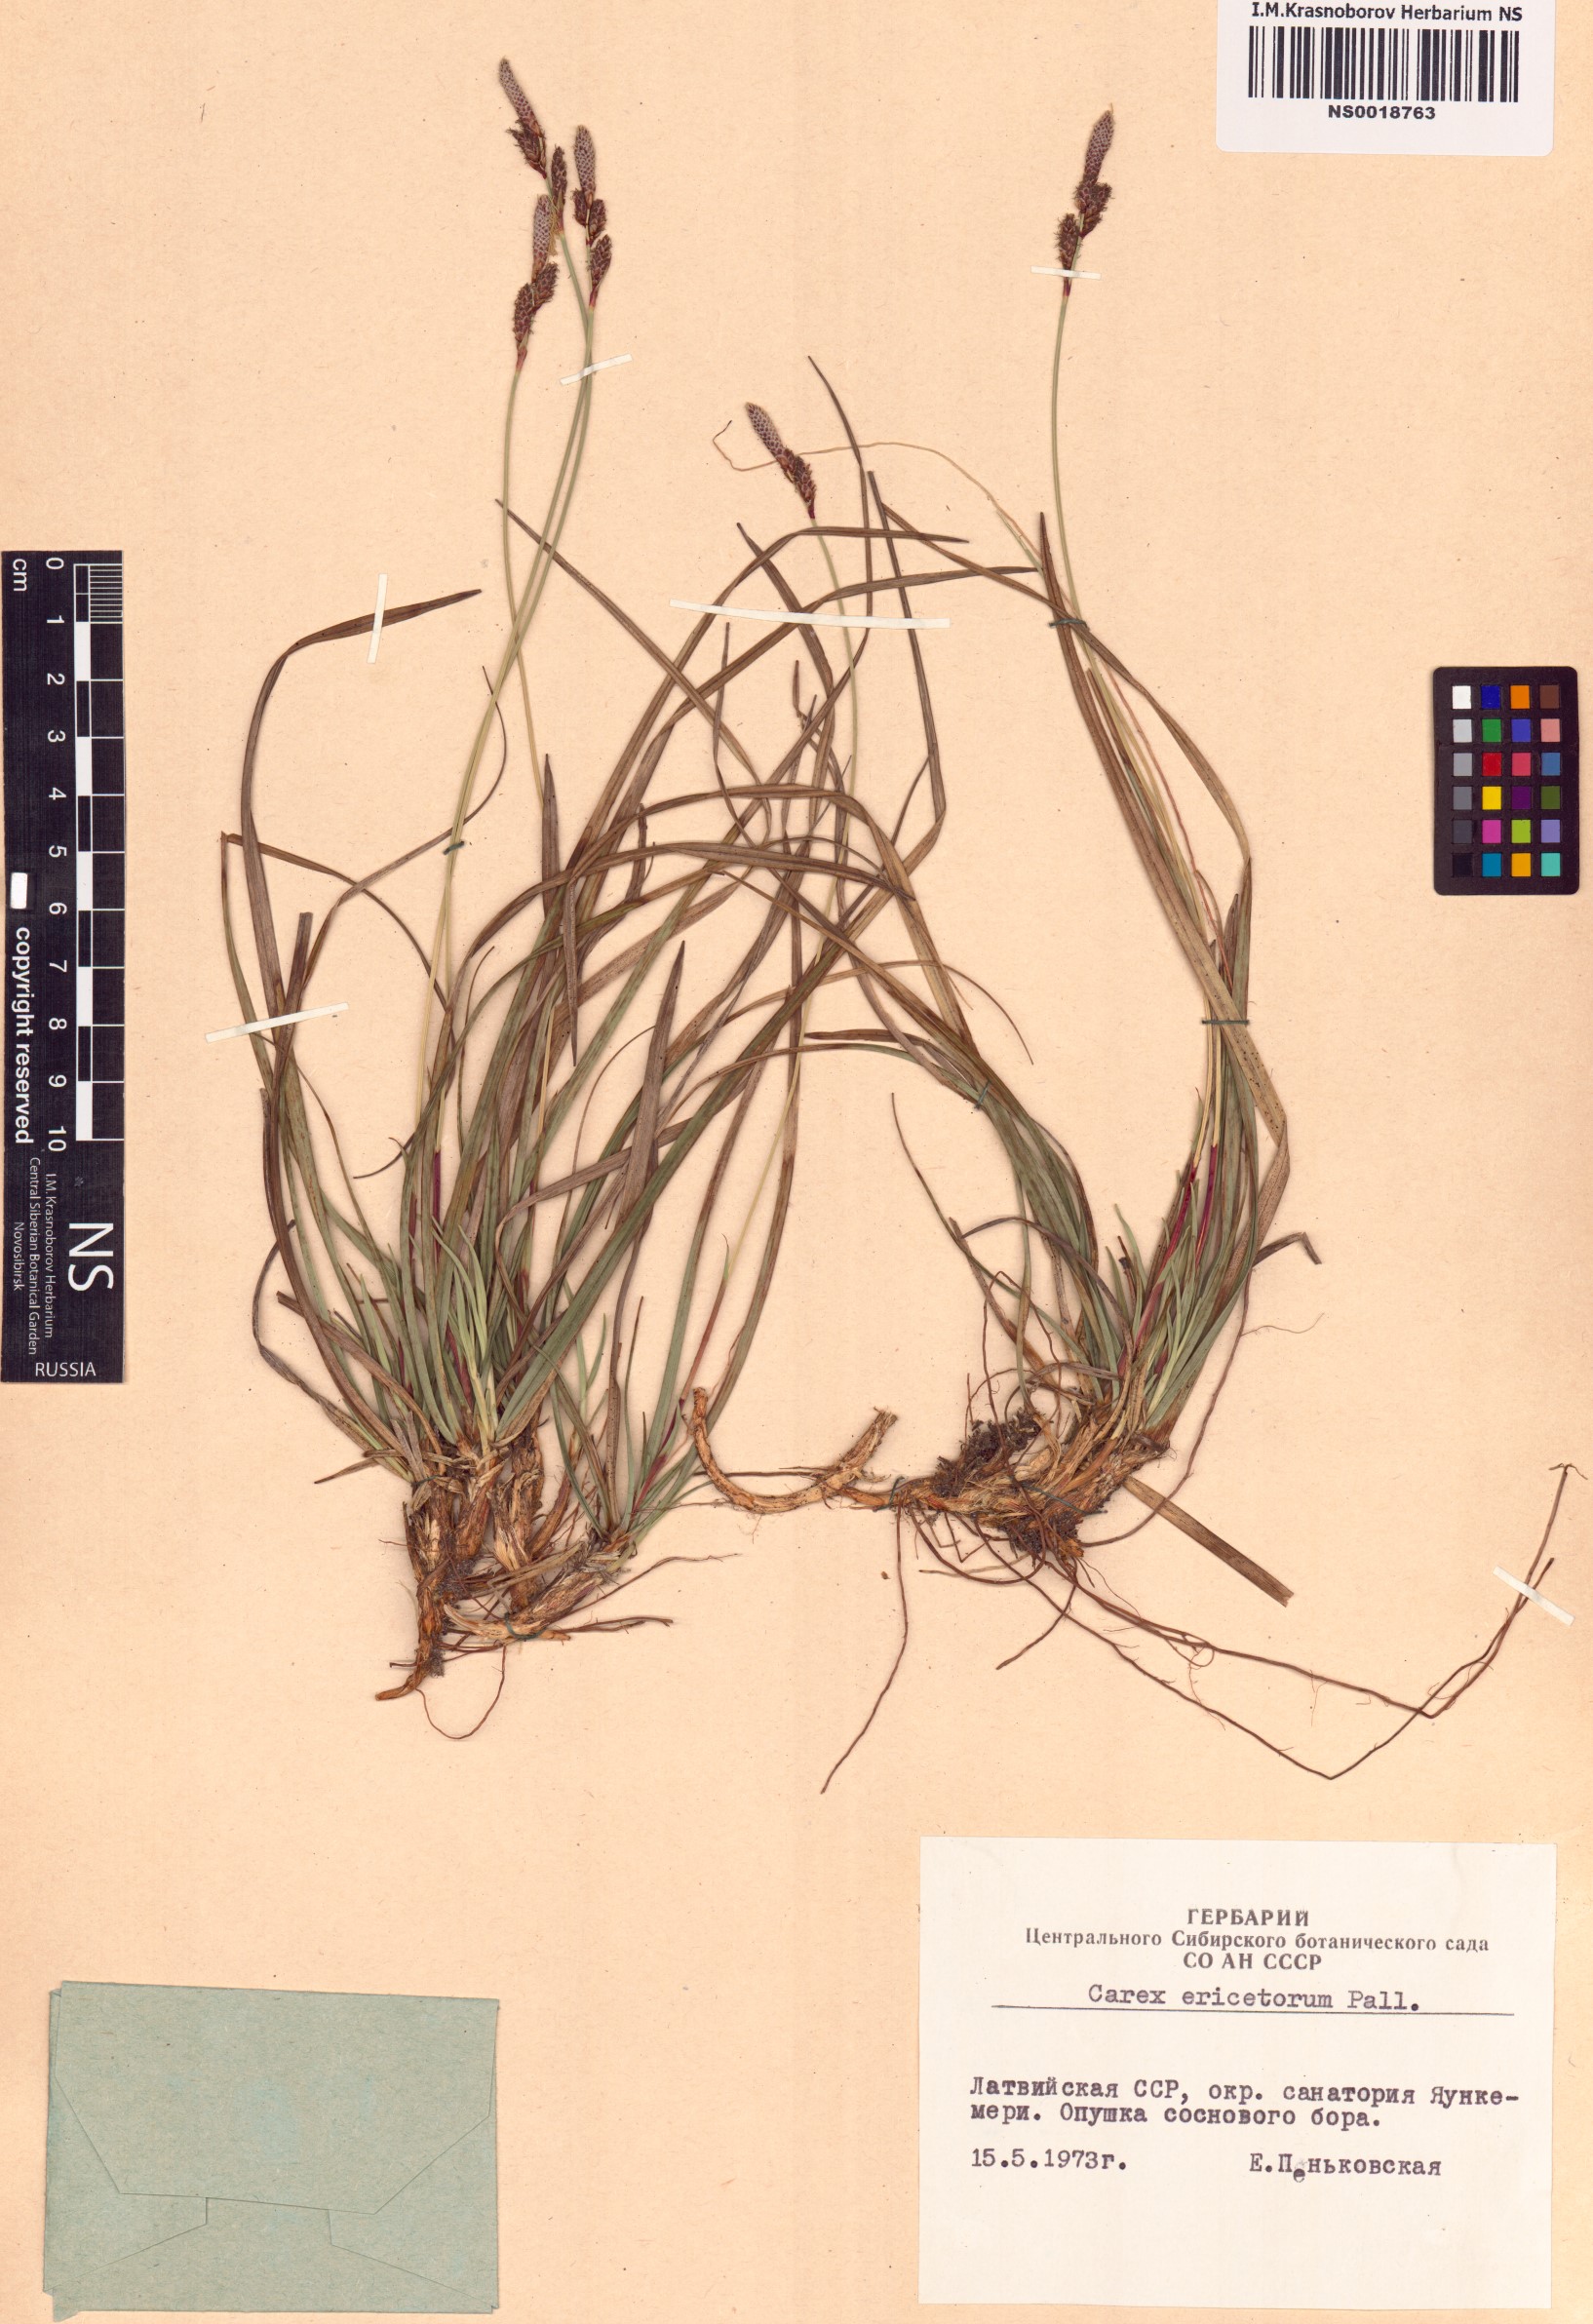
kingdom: Plantae
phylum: Tracheophyta
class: Liliopsida
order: Poales
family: Cyperaceae
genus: Carex
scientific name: Carex ericetorum
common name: Rare spring-sedge
